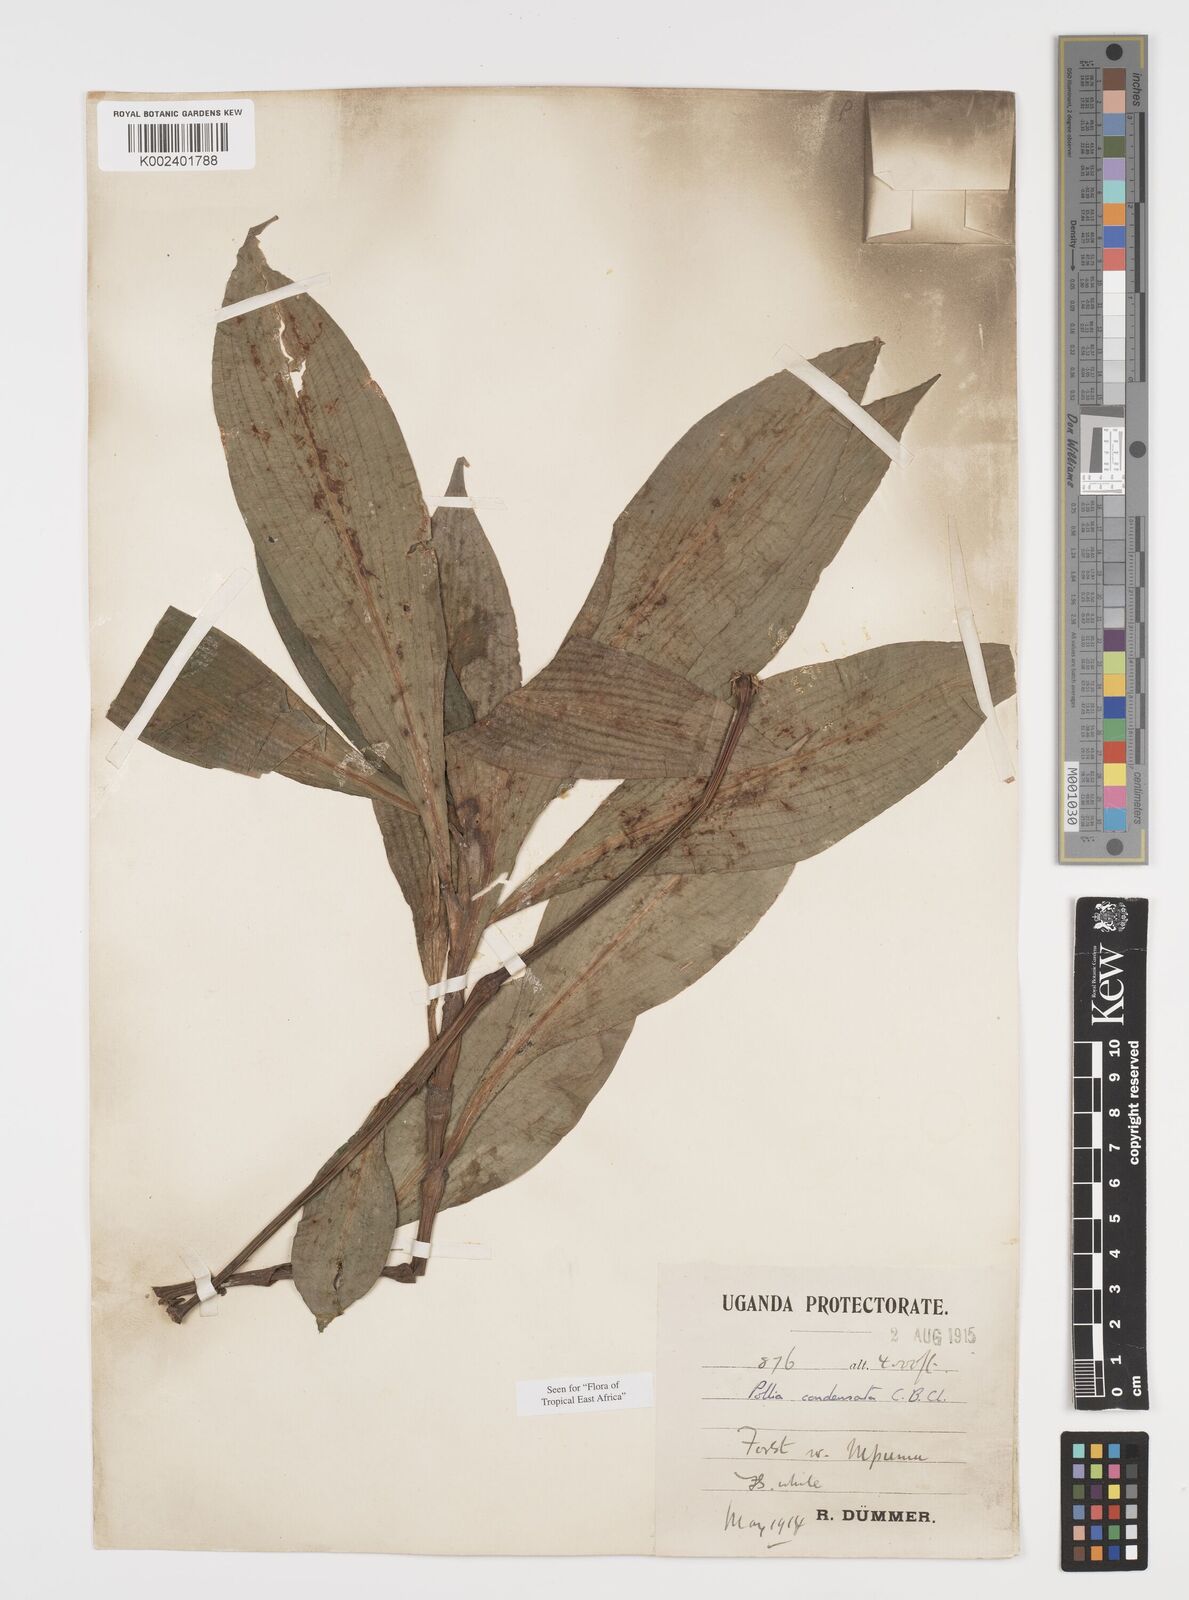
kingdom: Plantae
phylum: Tracheophyta
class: Liliopsida
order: Commelinales
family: Commelinaceae
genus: Pollia
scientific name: Pollia condensata
